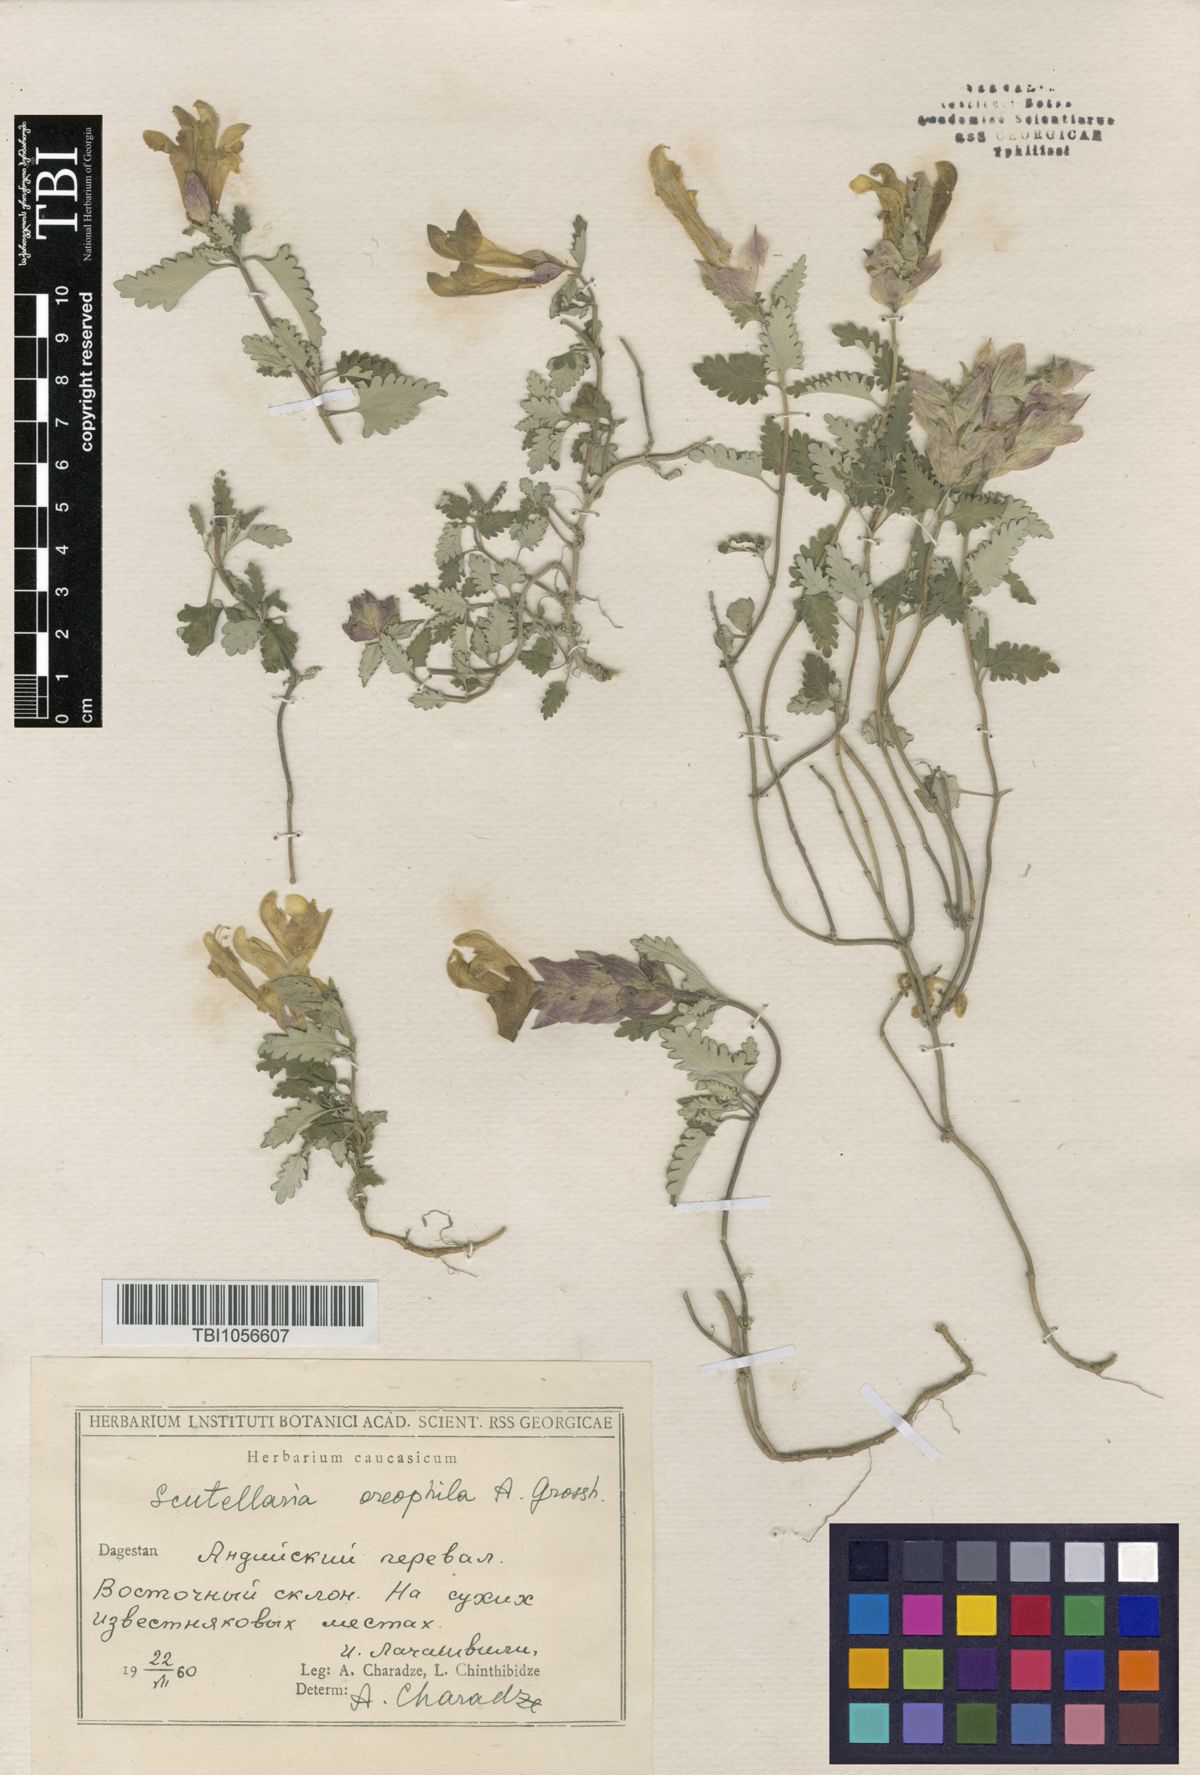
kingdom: Plantae
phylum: Tracheophyta
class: Magnoliopsida
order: Lamiales
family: Lamiaceae
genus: Scutellaria
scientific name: Scutellaria oreophila
